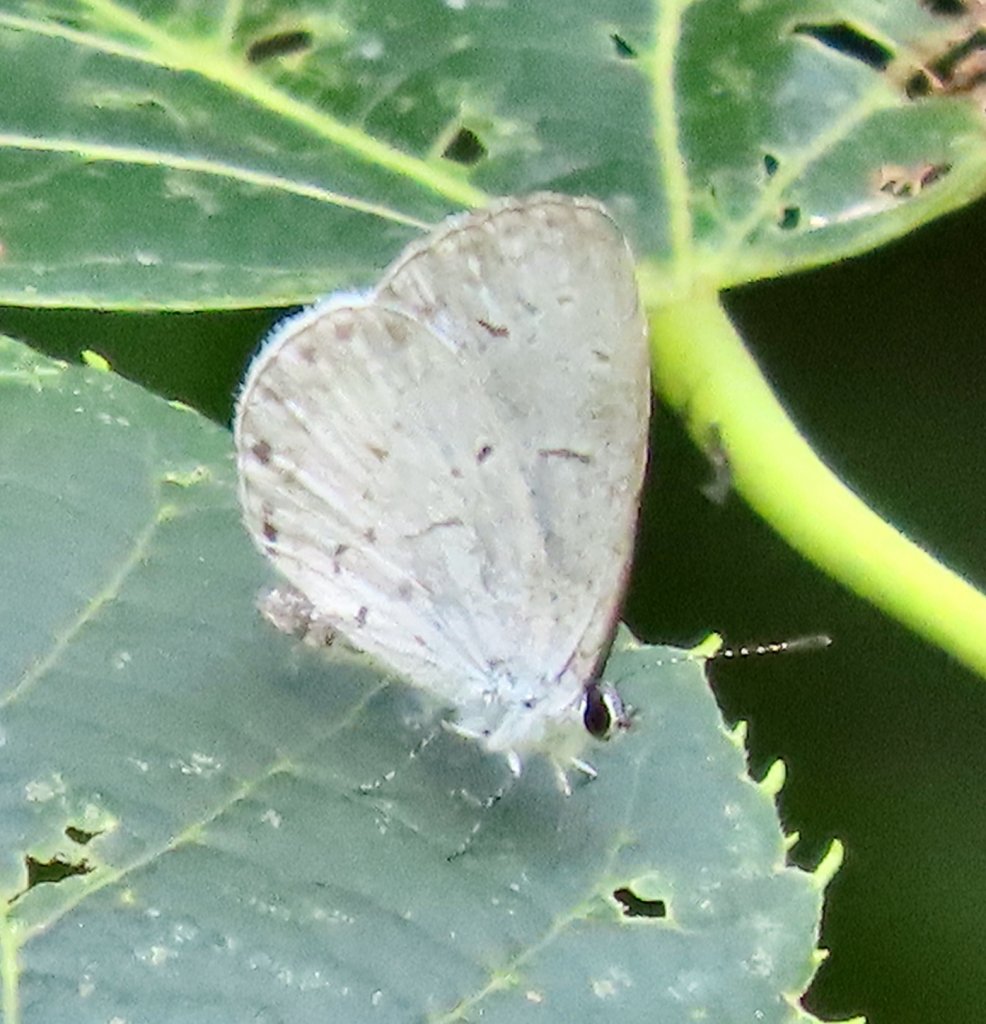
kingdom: Animalia
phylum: Arthropoda
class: Insecta
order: Lepidoptera
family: Lycaenidae
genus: Cyaniris
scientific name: Cyaniris neglecta
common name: Summer Azure
